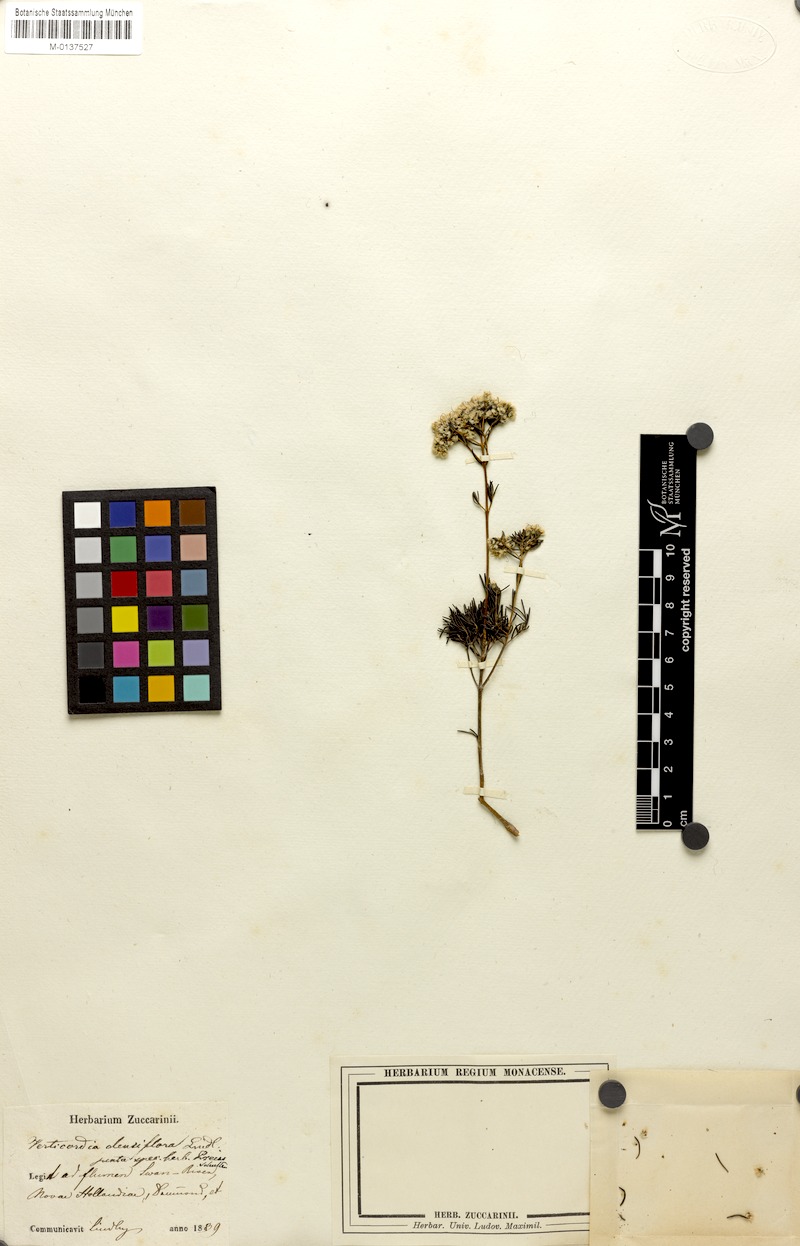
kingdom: Plantae
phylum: Tracheophyta
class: Magnoliopsida
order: Myrtales
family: Myrtaceae
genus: Verticordia
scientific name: Verticordia densiflora
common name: Compact feather-flower
